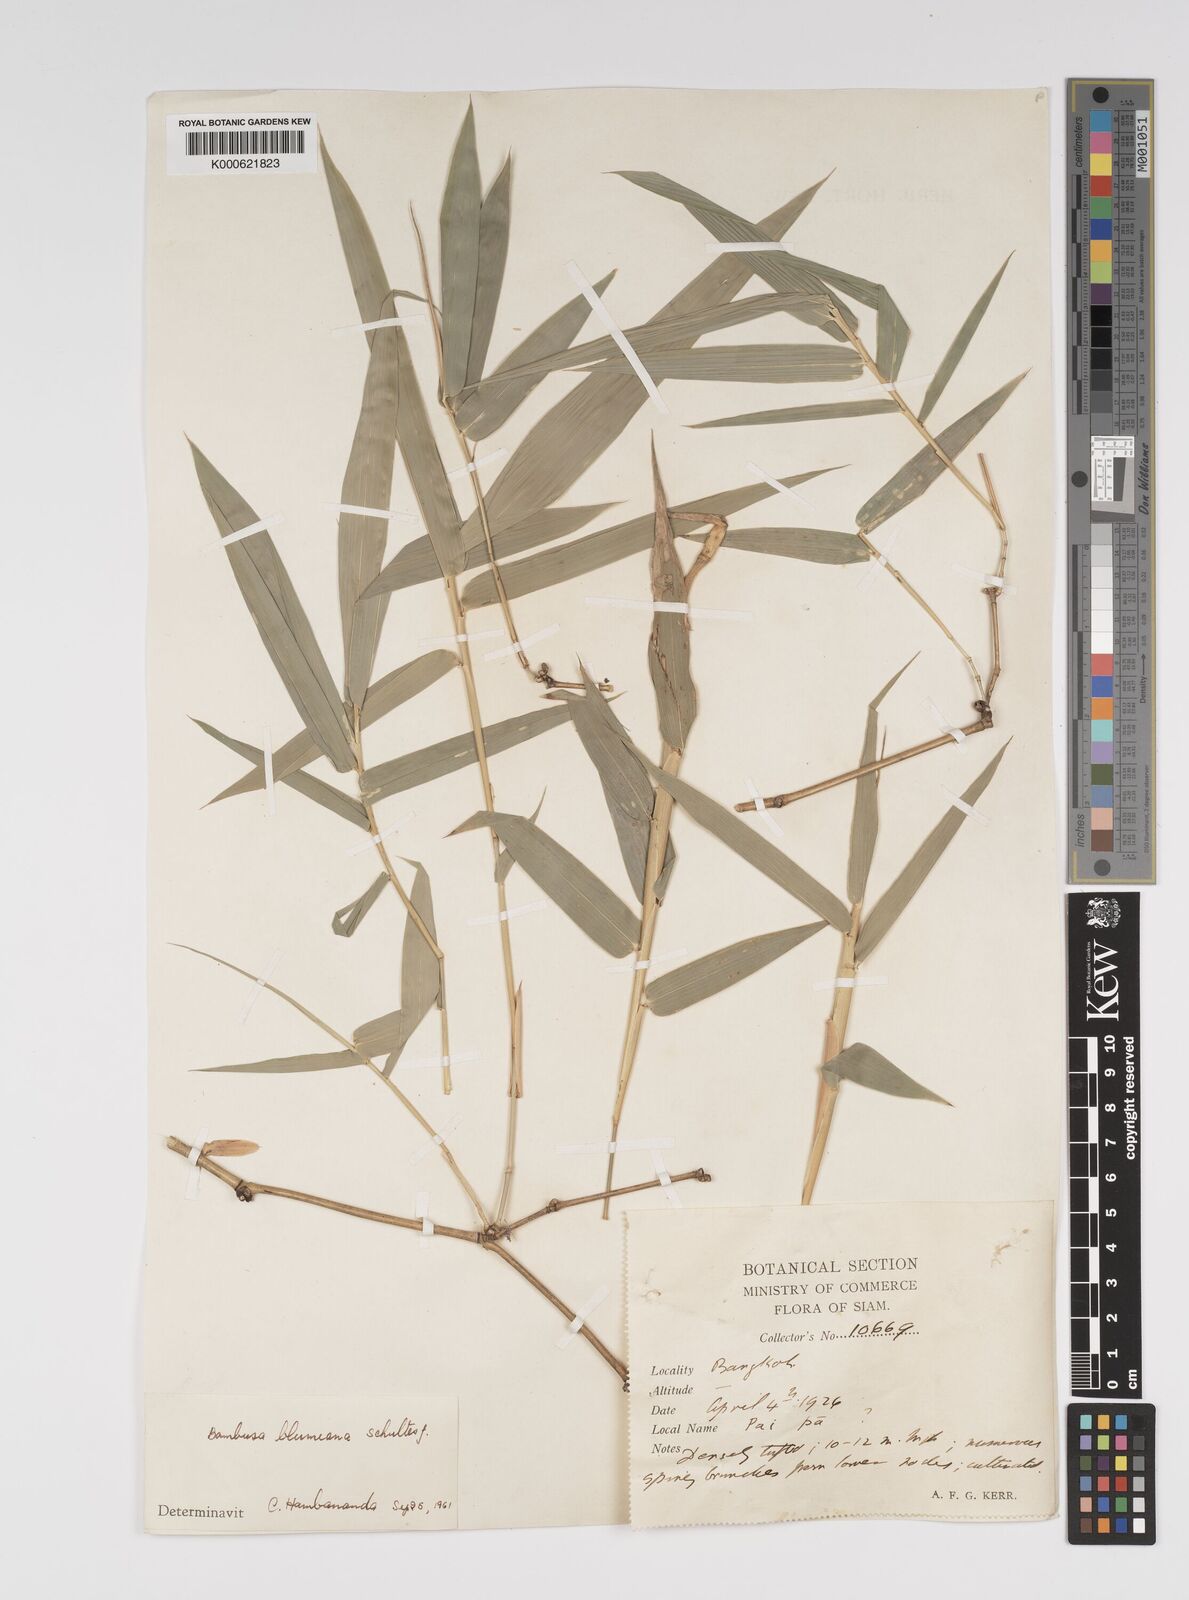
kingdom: Plantae
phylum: Tracheophyta
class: Liliopsida
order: Poales
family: Poaceae
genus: Bambusa
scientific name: Bambusa spinosa
